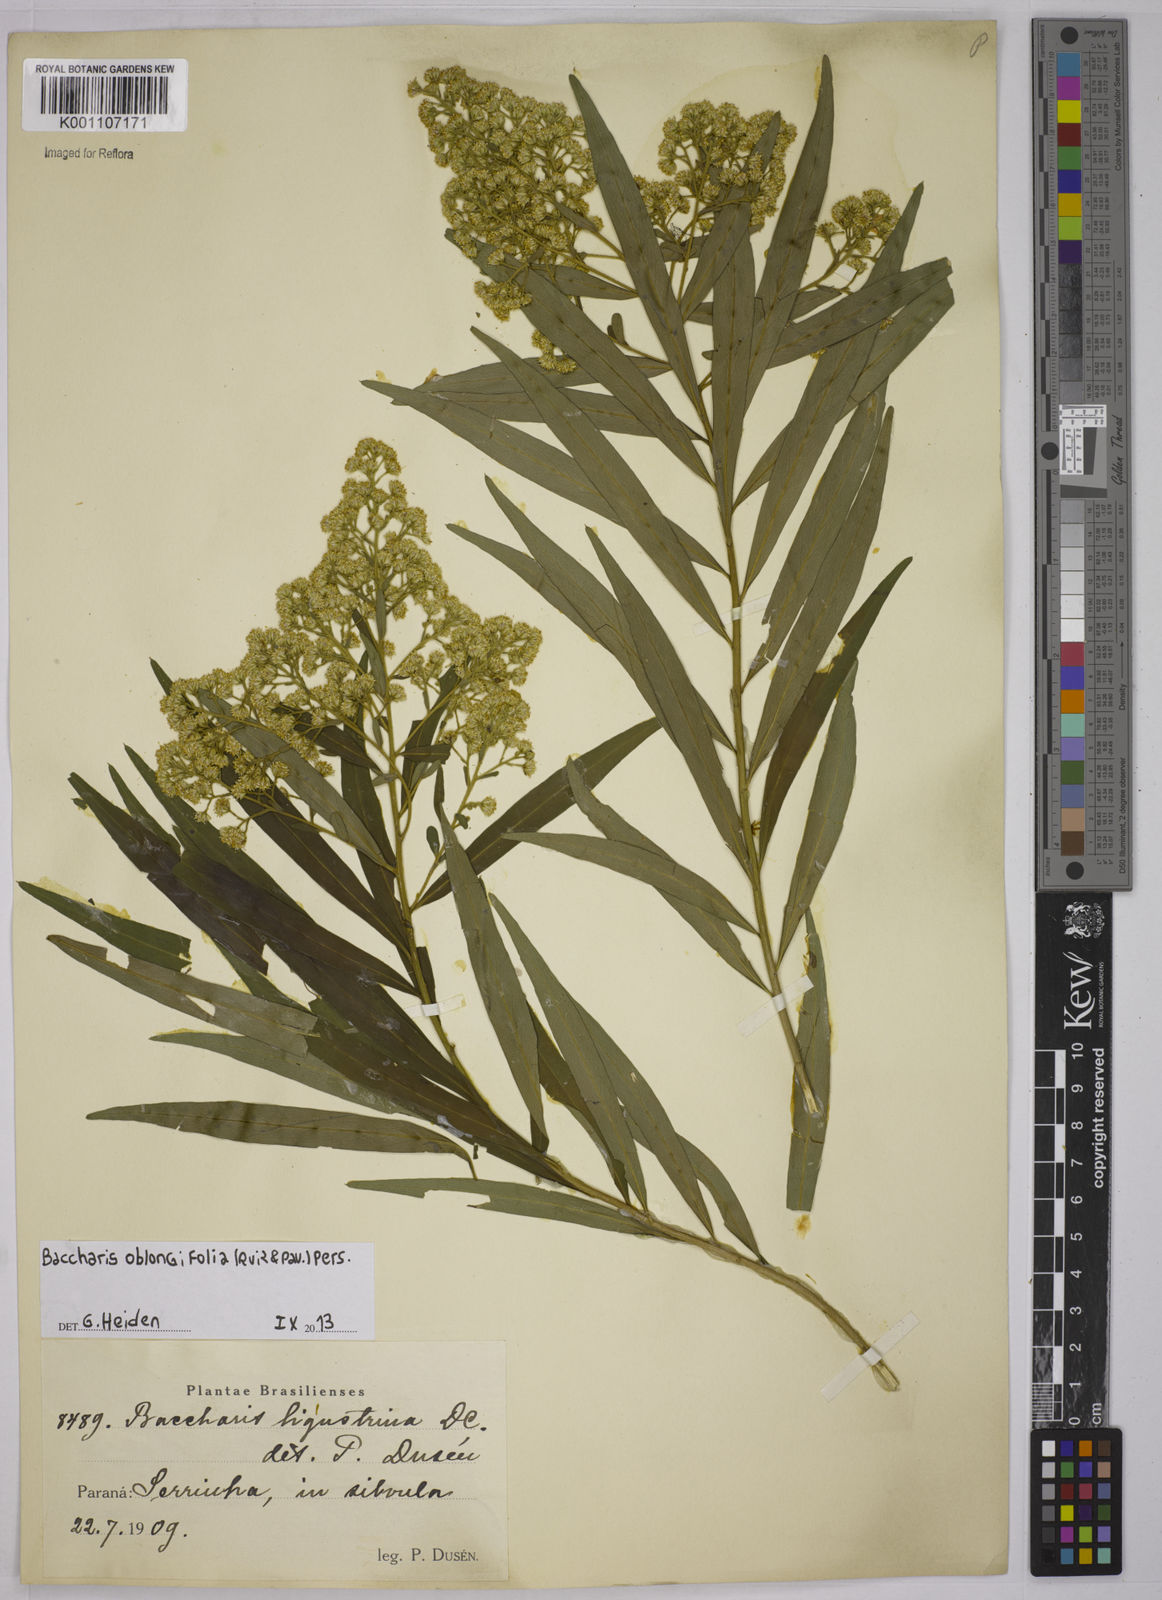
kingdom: Plantae
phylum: Tracheophyta
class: Magnoliopsida
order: Asterales
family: Asteraceae
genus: Baccharis
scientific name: Baccharis oblongifolia
